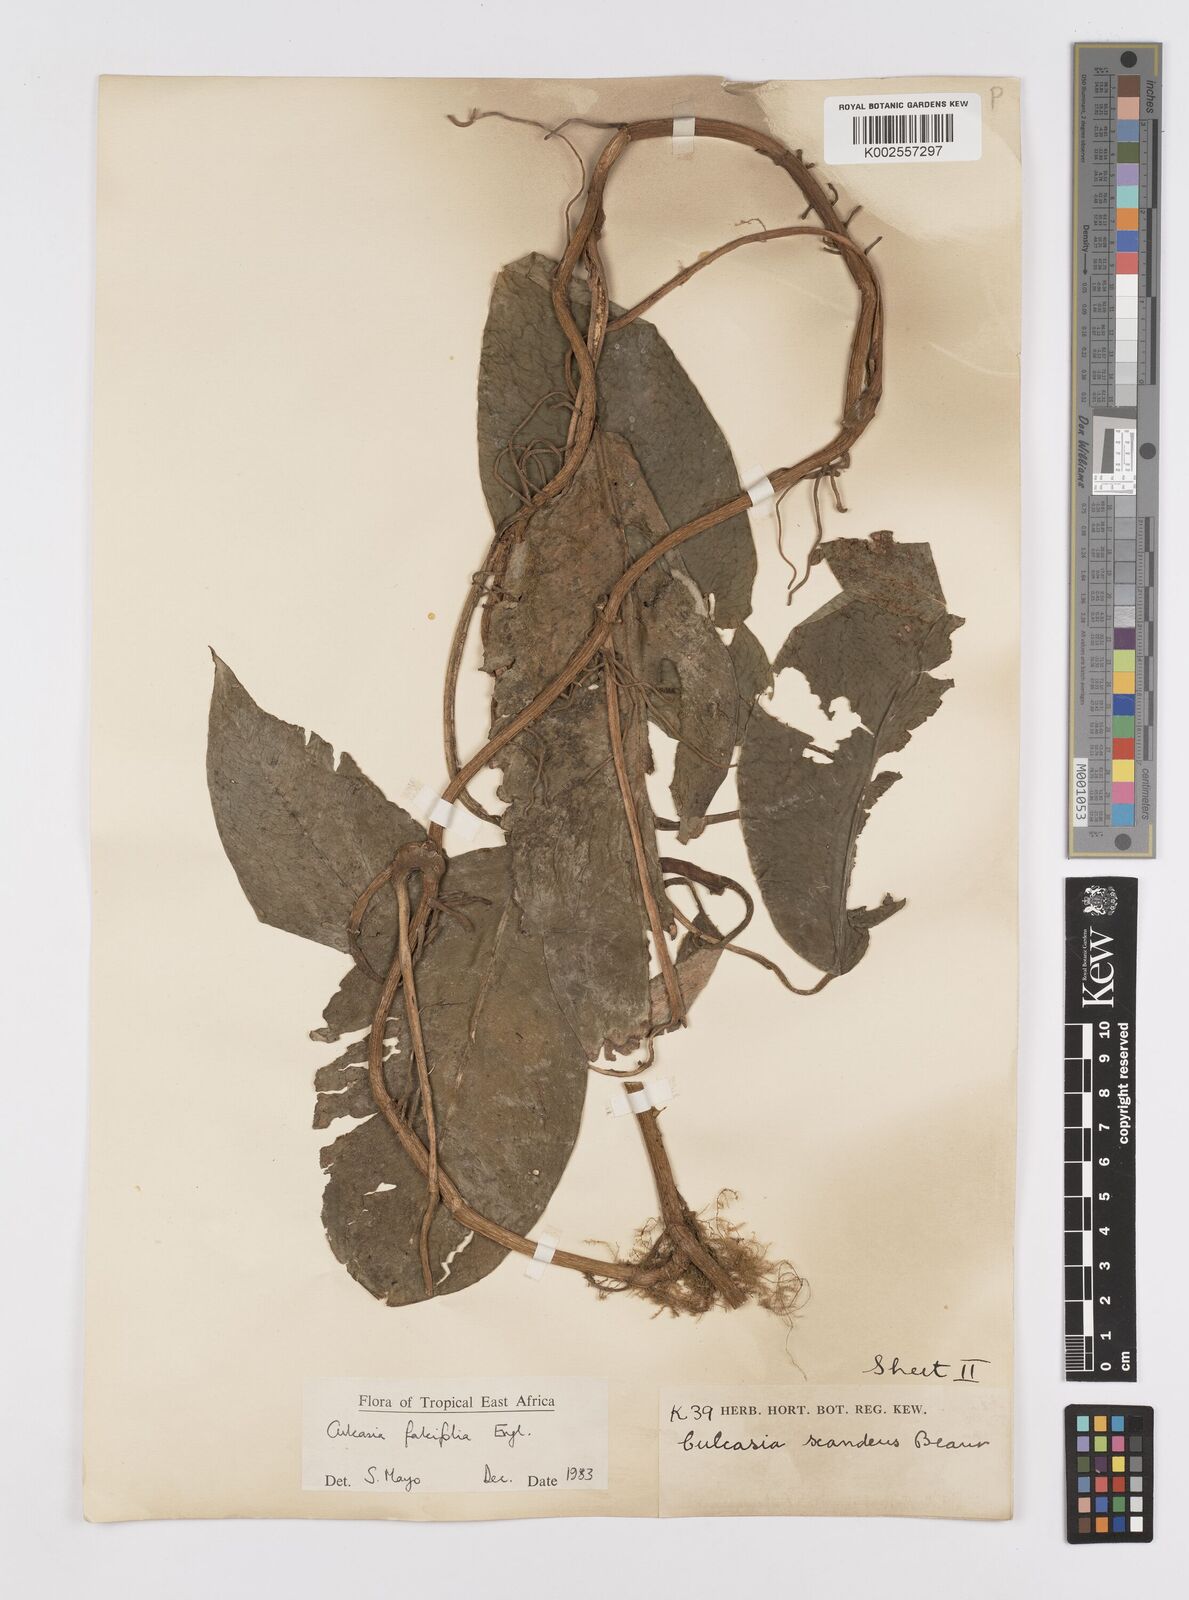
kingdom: Plantae
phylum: Tracheophyta
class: Liliopsida
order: Alismatales
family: Araceae
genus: Culcasia
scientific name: Culcasia falcifolia
